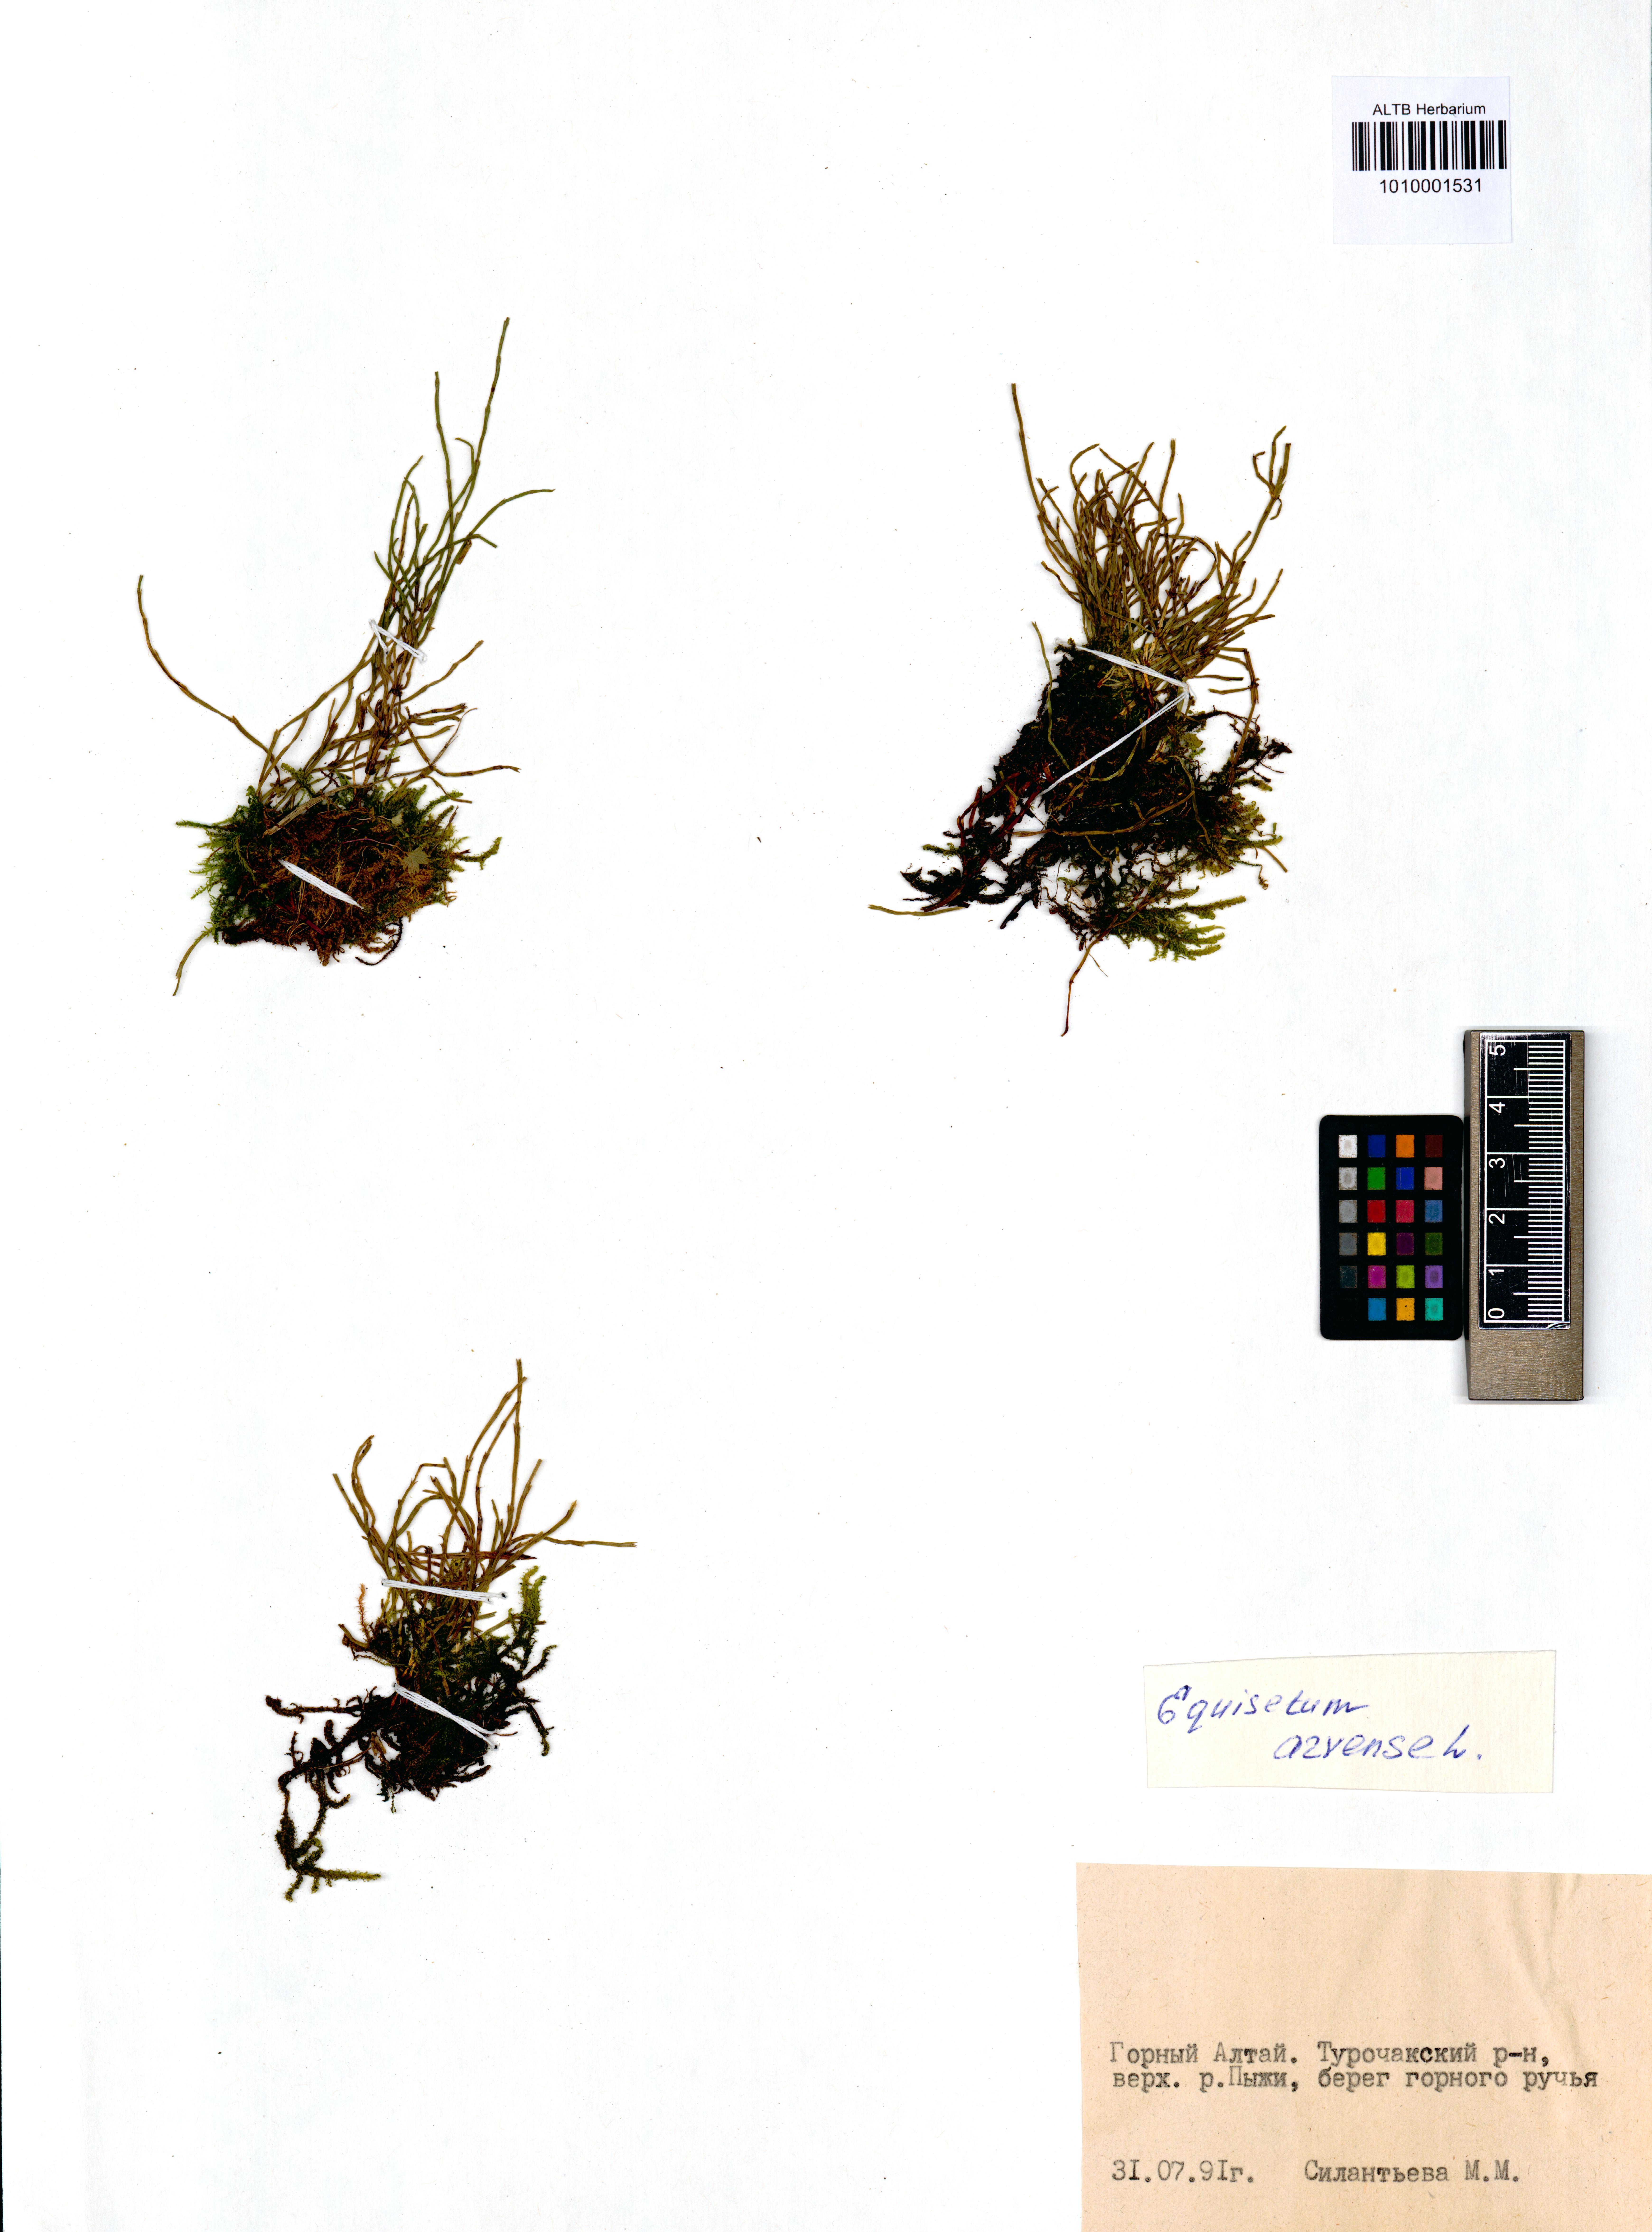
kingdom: Plantae
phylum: Tracheophyta
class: Polypodiopsida
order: Equisetales
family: Equisetaceae
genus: Equisetum
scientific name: Equisetum arvense
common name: Field horsetail
